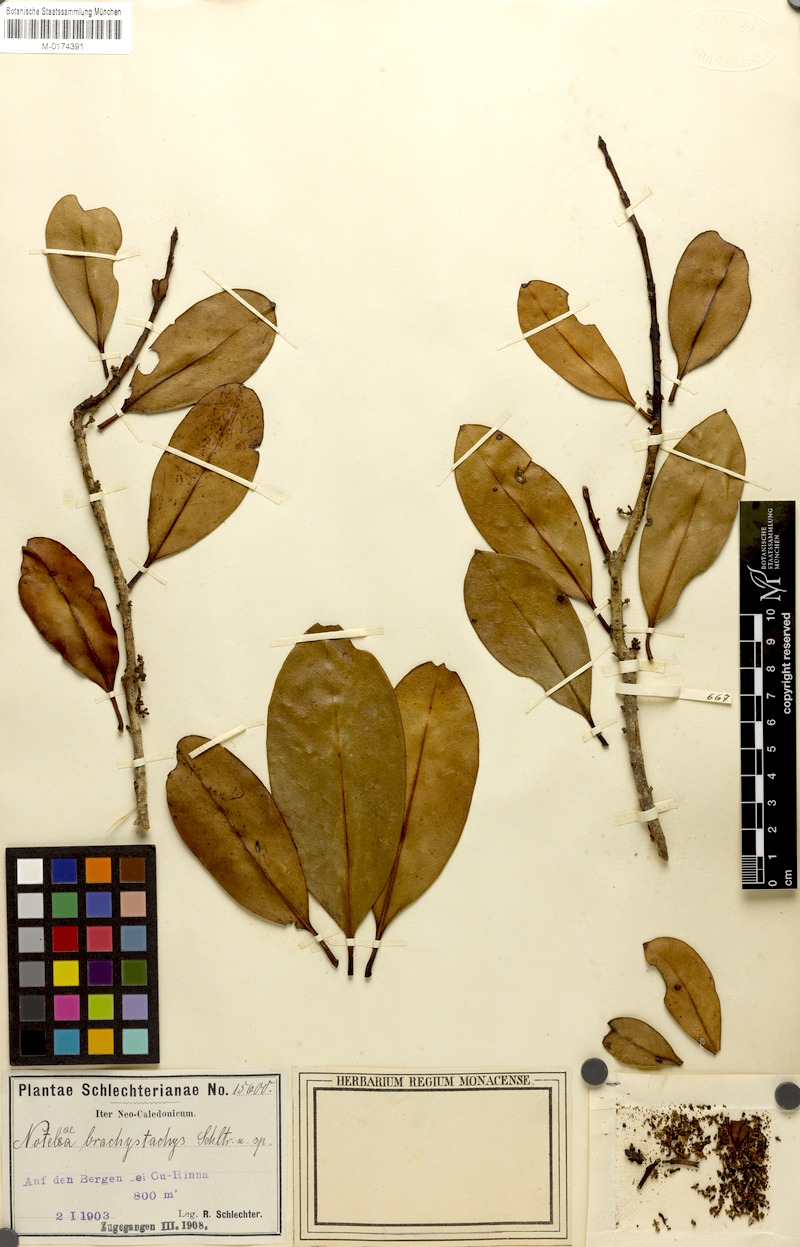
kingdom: Plantae
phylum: Tracheophyta
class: Magnoliopsida
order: Lamiales
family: Oleaceae
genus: Chionanthus
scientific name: Chionanthus brachystachys
